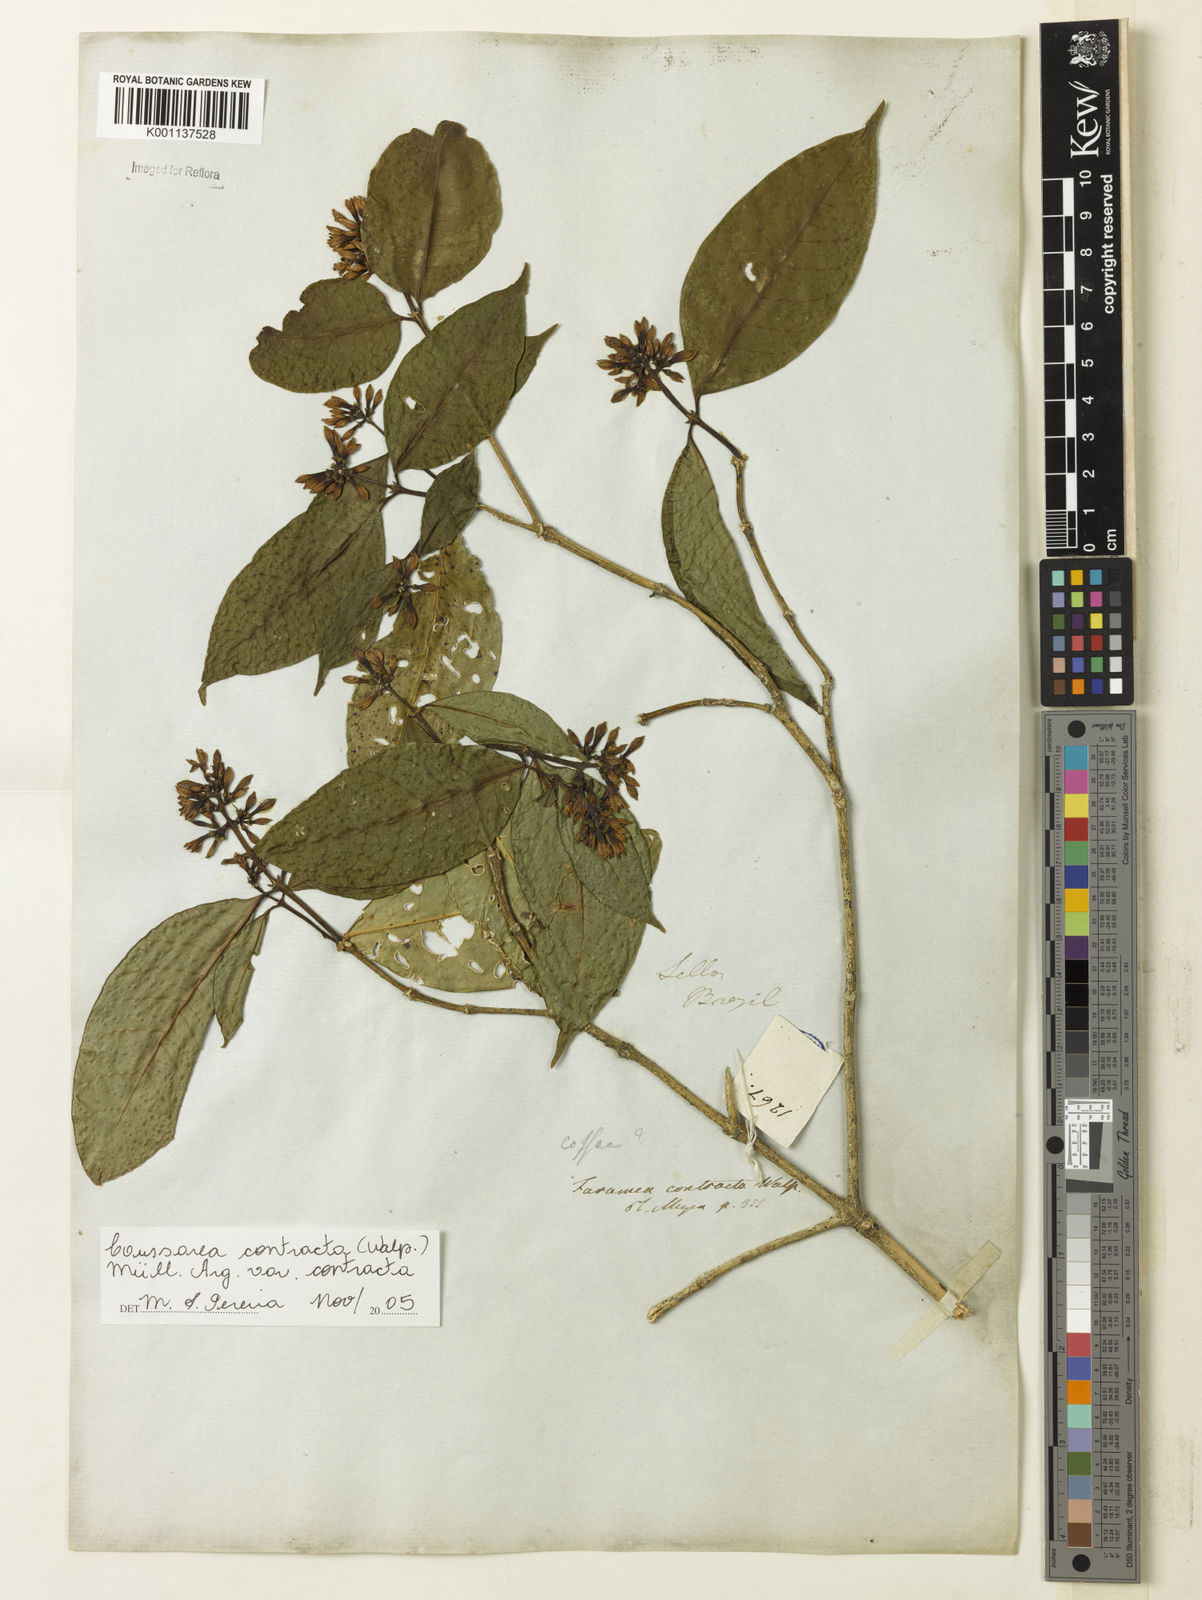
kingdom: Plantae
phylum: Tracheophyta
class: Magnoliopsida
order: Gentianales
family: Rubiaceae
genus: Coussarea
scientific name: Coussarea
